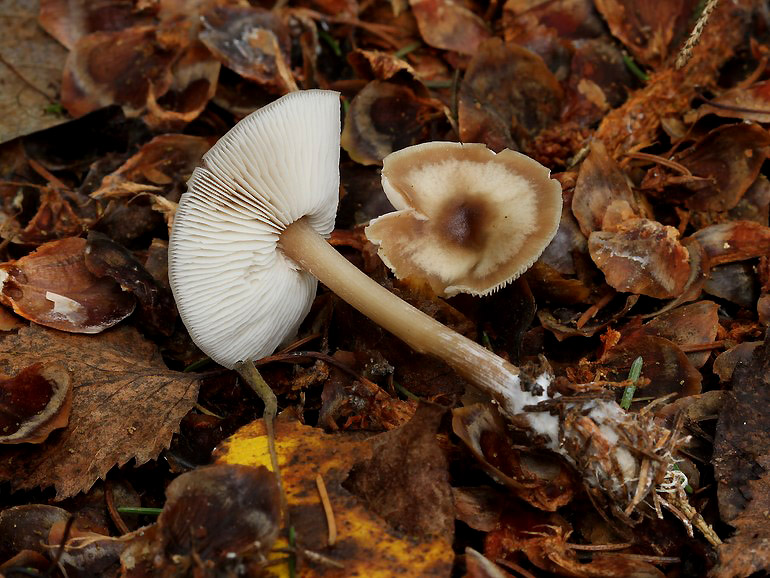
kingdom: Fungi
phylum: Basidiomycota
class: Agaricomycetes
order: Agaricales
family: Omphalotaceae
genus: Rhodocollybia
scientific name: Rhodocollybia asema
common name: horngrå fladhat
